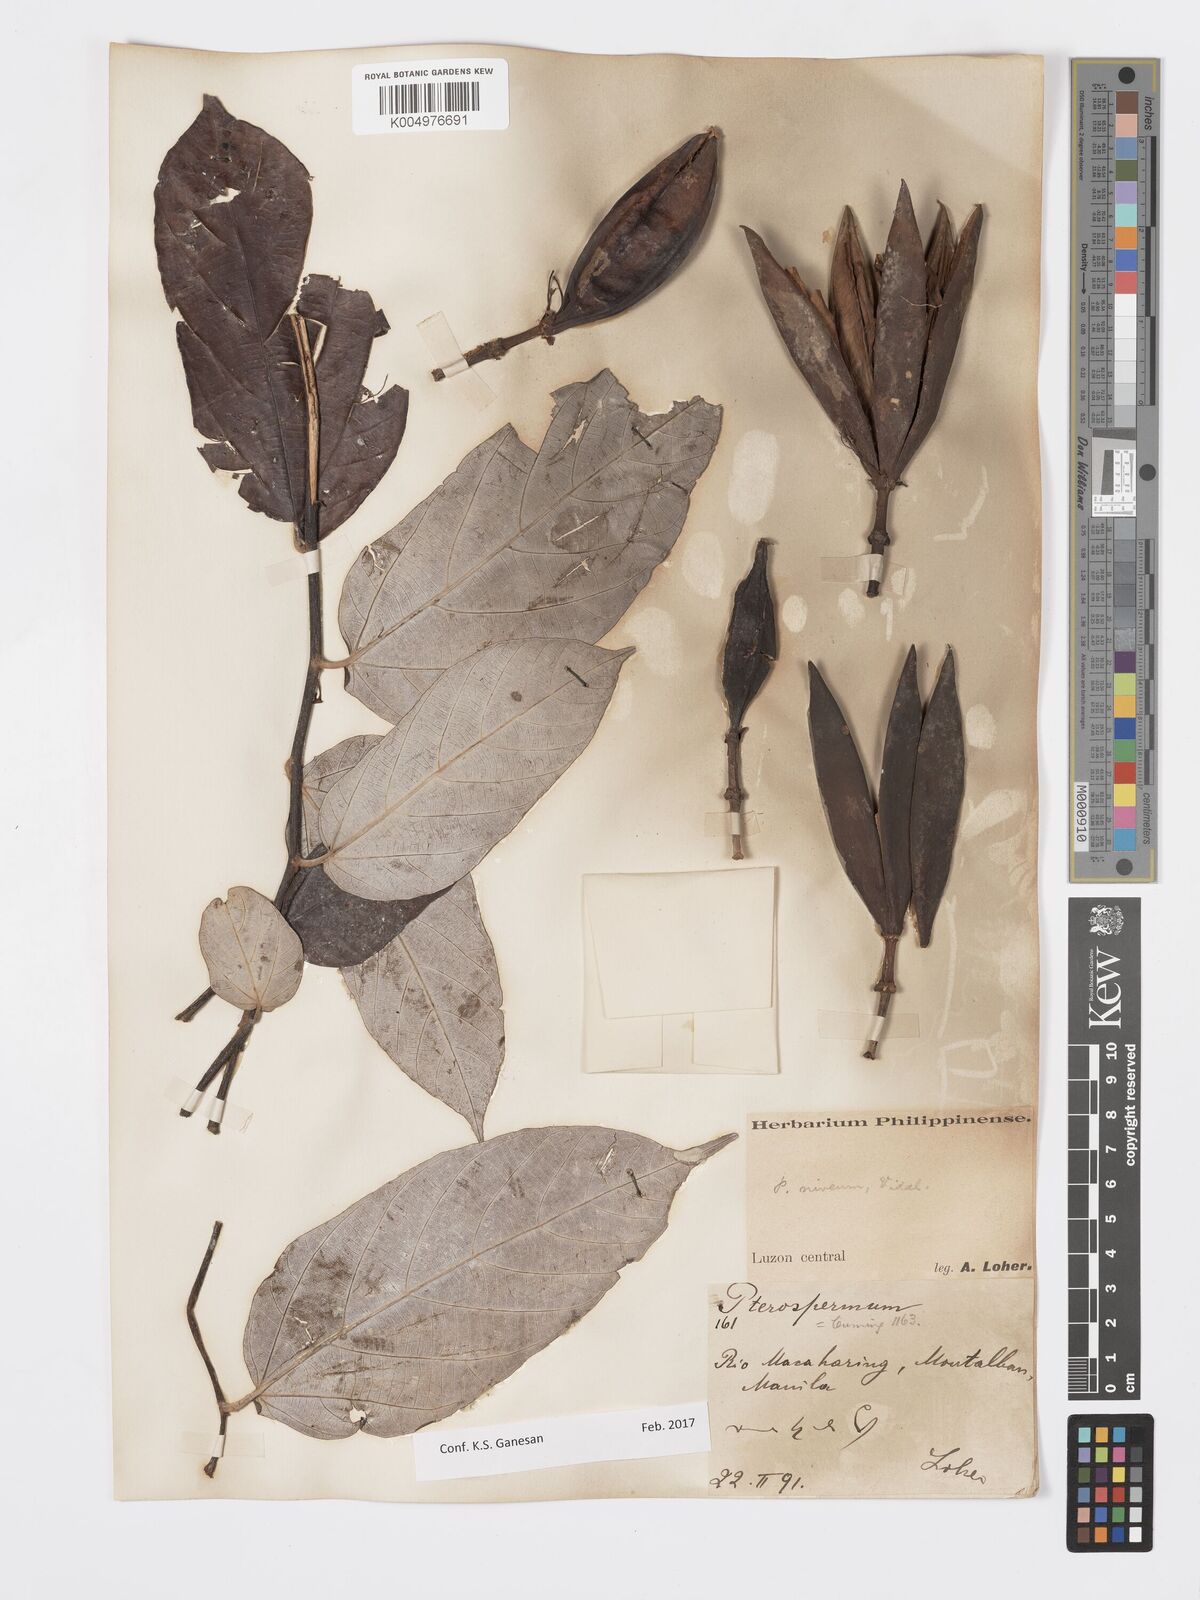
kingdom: Plantae
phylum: Tracheophyta
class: Magnoliopsida
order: Malvales
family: Malvaceae
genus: Pterospermum
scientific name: Pterospermum niveum
